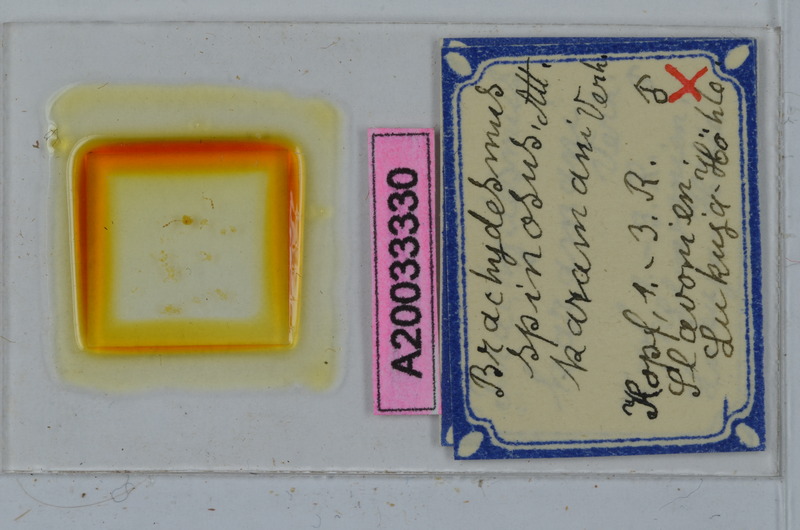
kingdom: Animalia
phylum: Arthropoda
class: Diplopoda
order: Polydesmida
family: Polydesmidae
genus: Brachydesmus
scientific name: Brachydesmus spinosus
